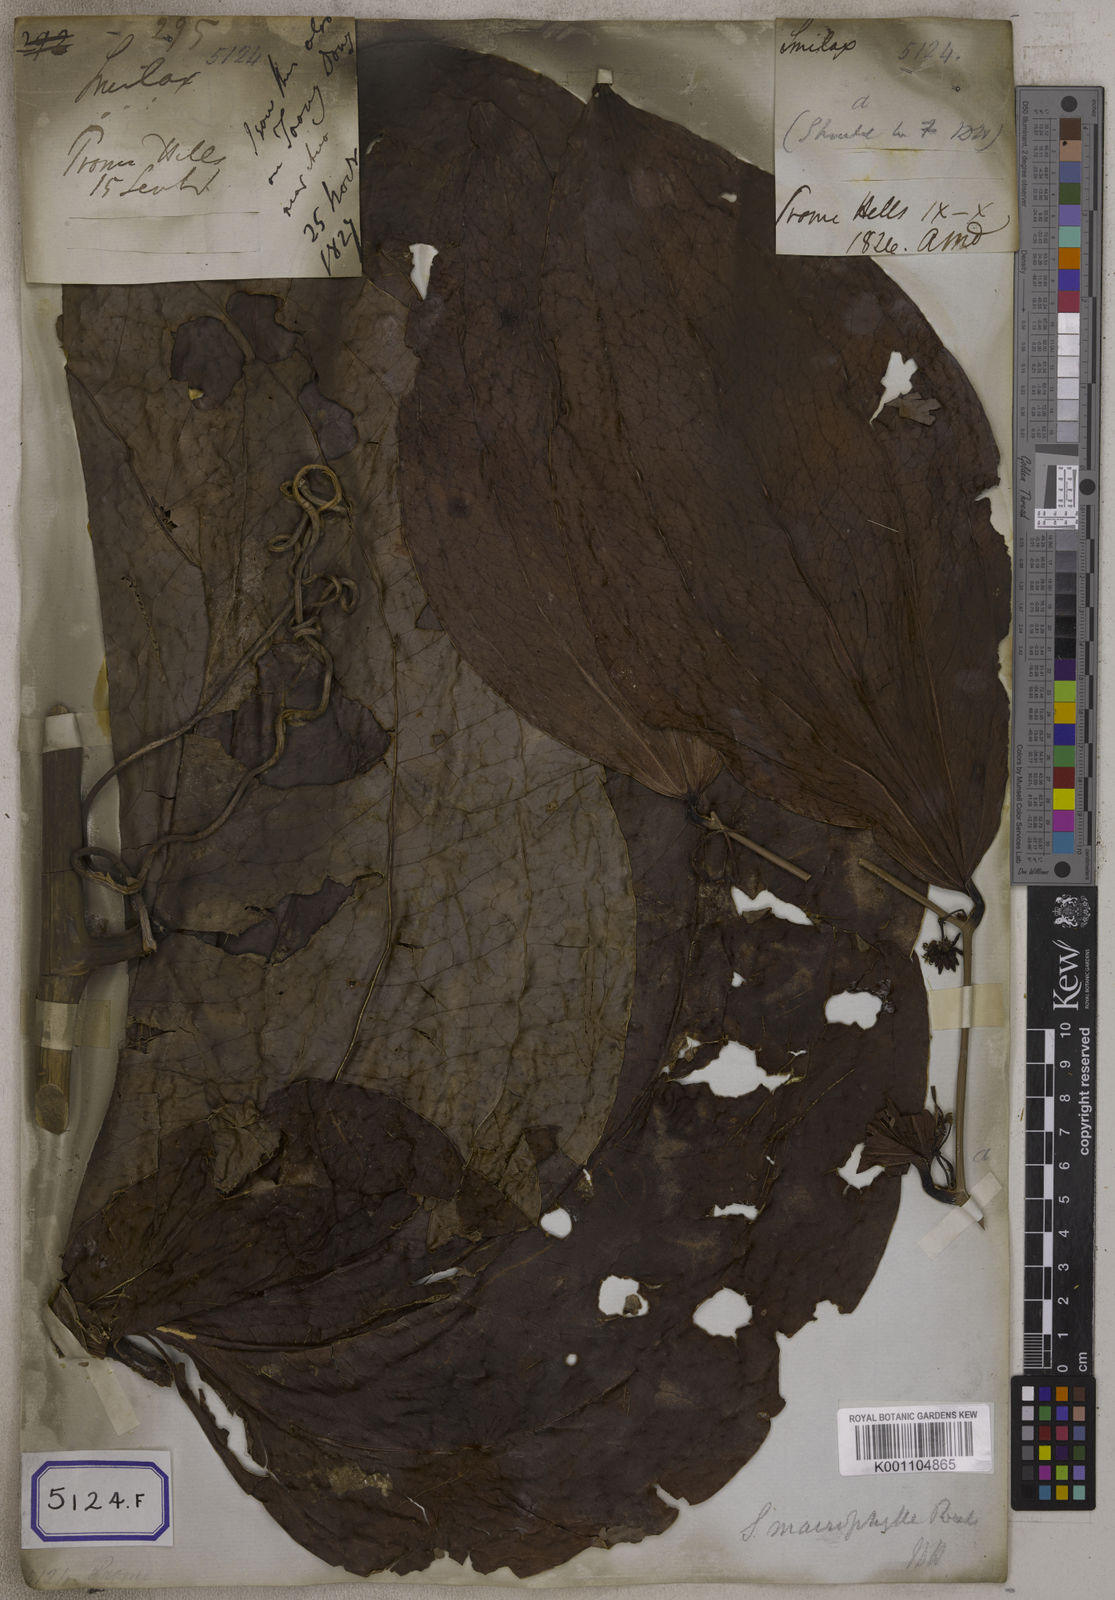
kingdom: Plantae
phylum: Tracheophyta
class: Liliopsida
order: Liliales
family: Smilacaceae
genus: Smilax
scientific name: Smilax prolifera
